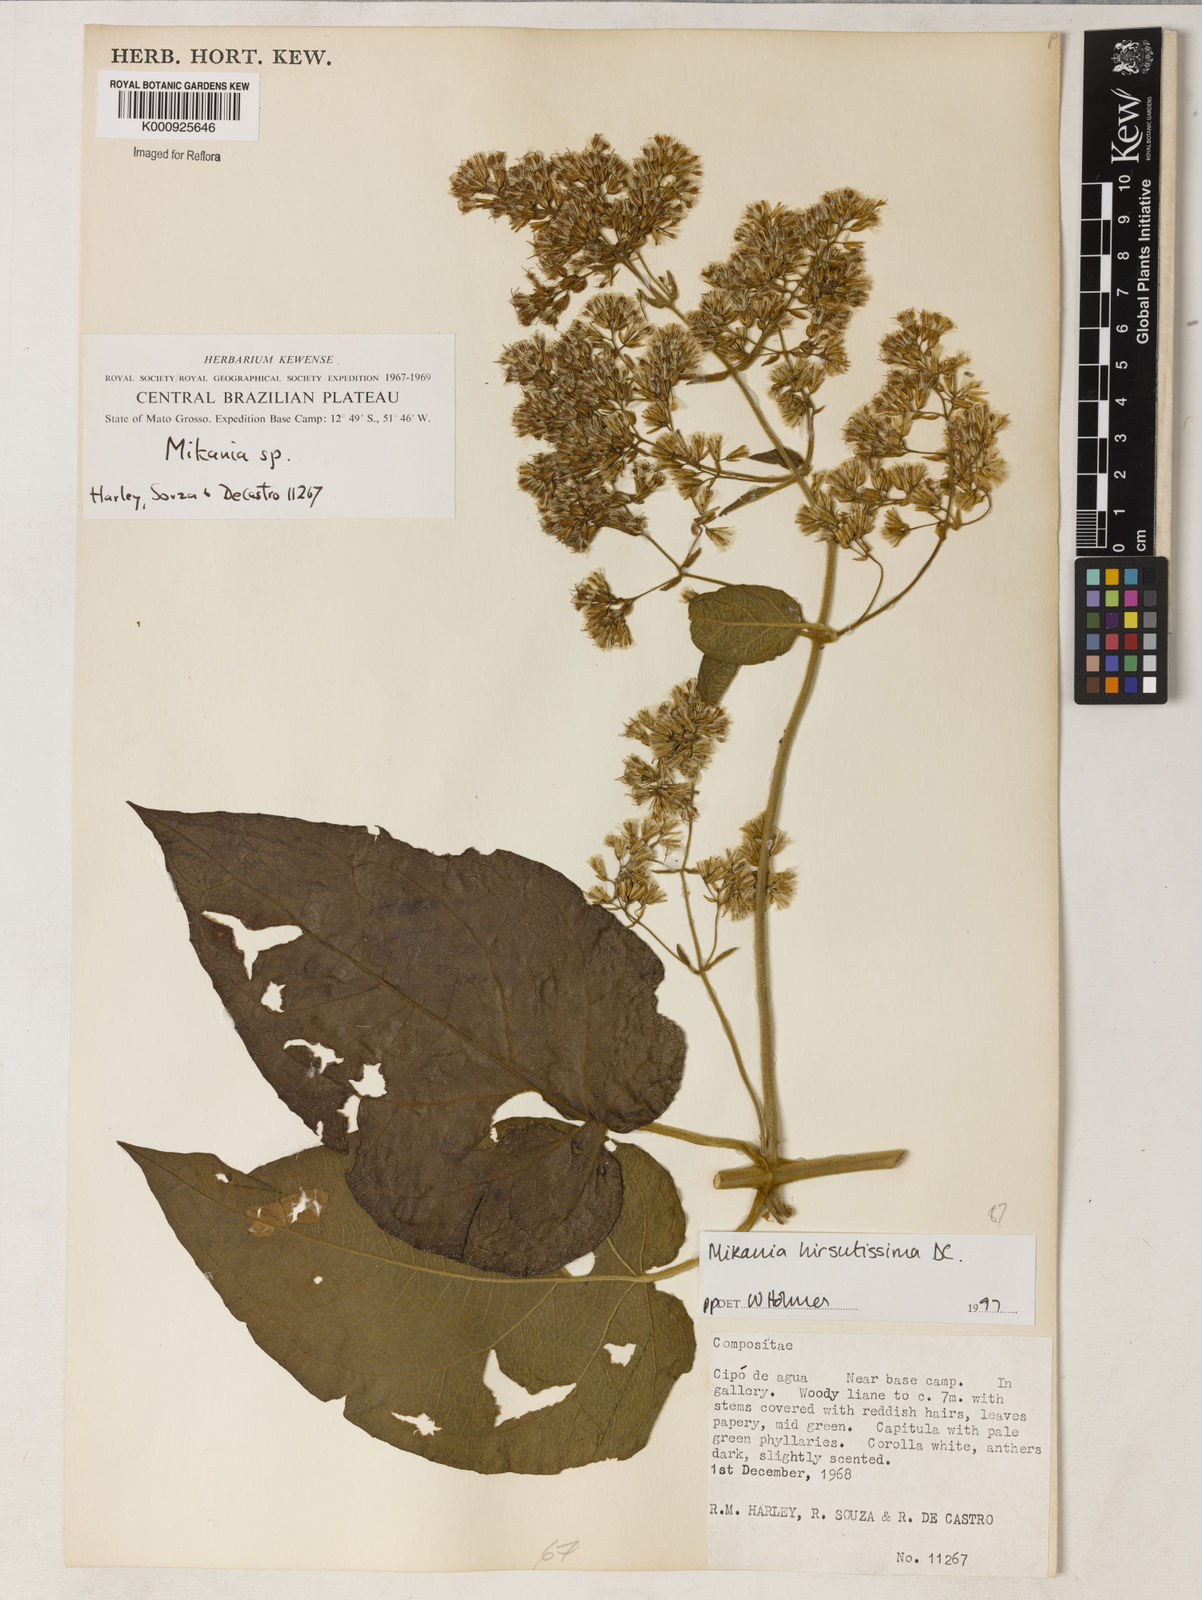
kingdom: Plantae
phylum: Tracheophyta
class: Magnoliopsida
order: Asterales
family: Asteraceae
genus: Mikania
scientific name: Mikania banisteriae
